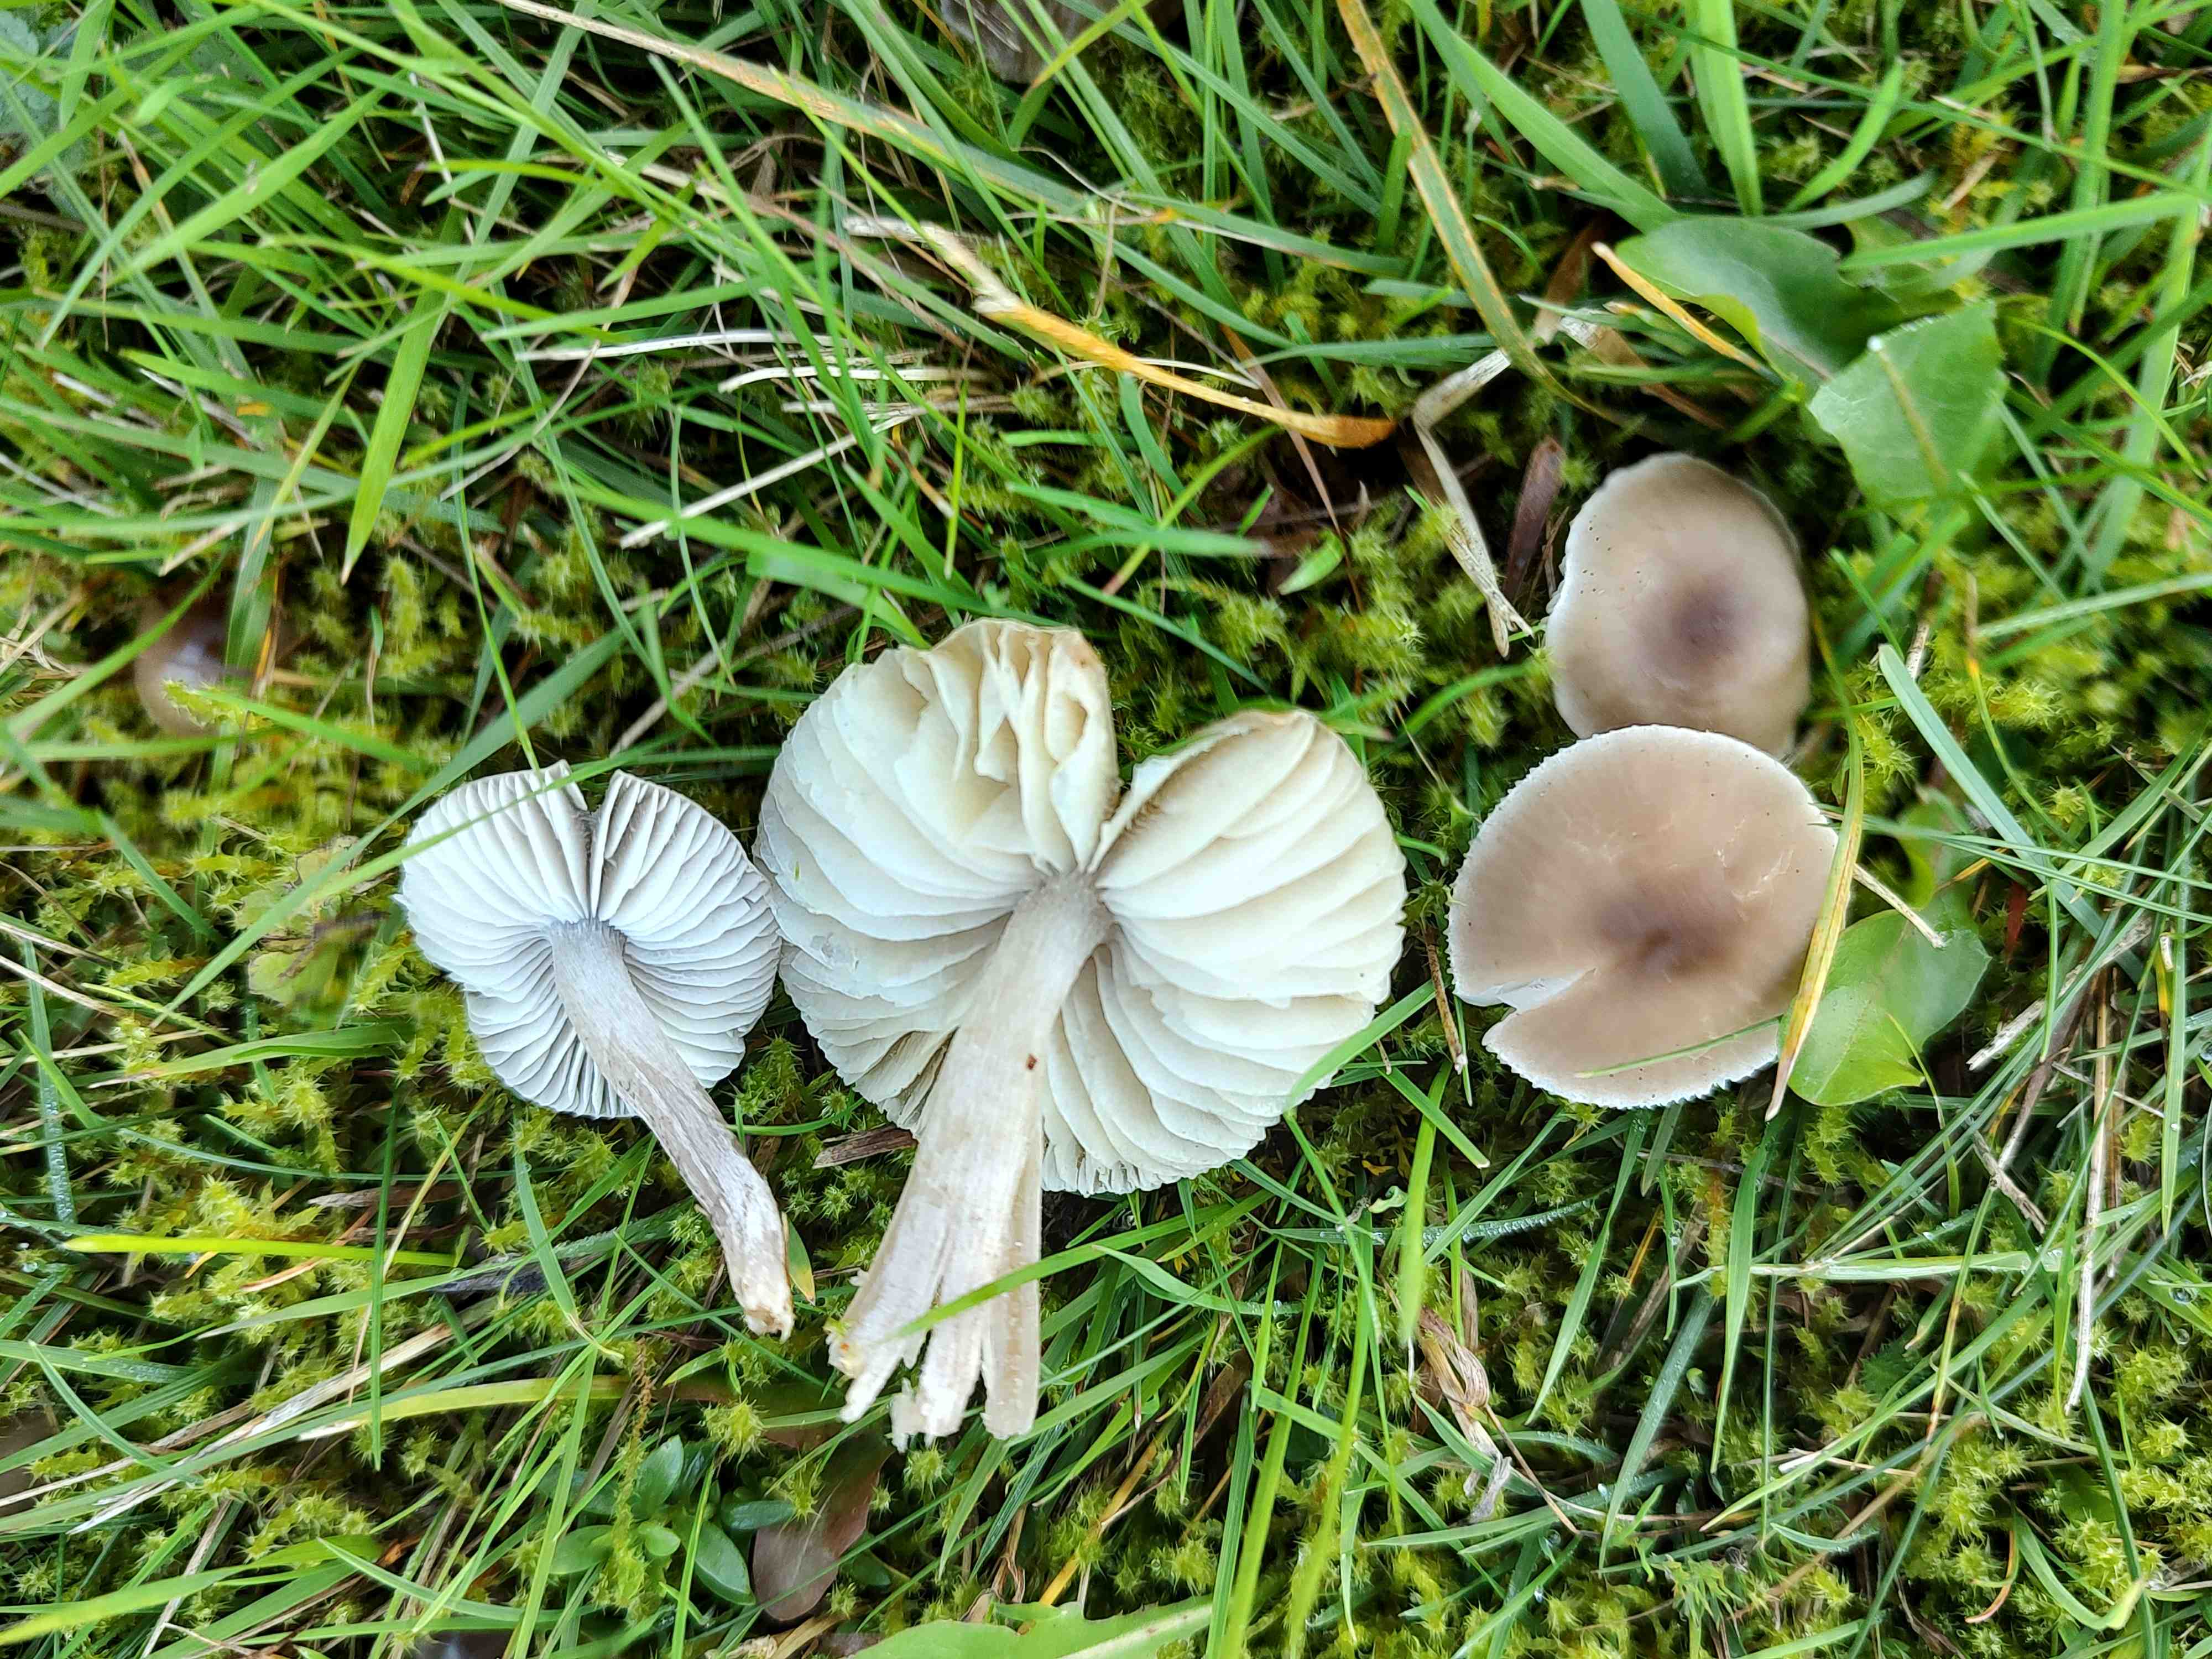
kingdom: Fungi
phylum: Basidiomycota
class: Agaricomycetes
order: Agaricales
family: Tricholomataceae
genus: Dermoloma
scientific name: Dermoloma cuneifolium
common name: eng-nonnehat
